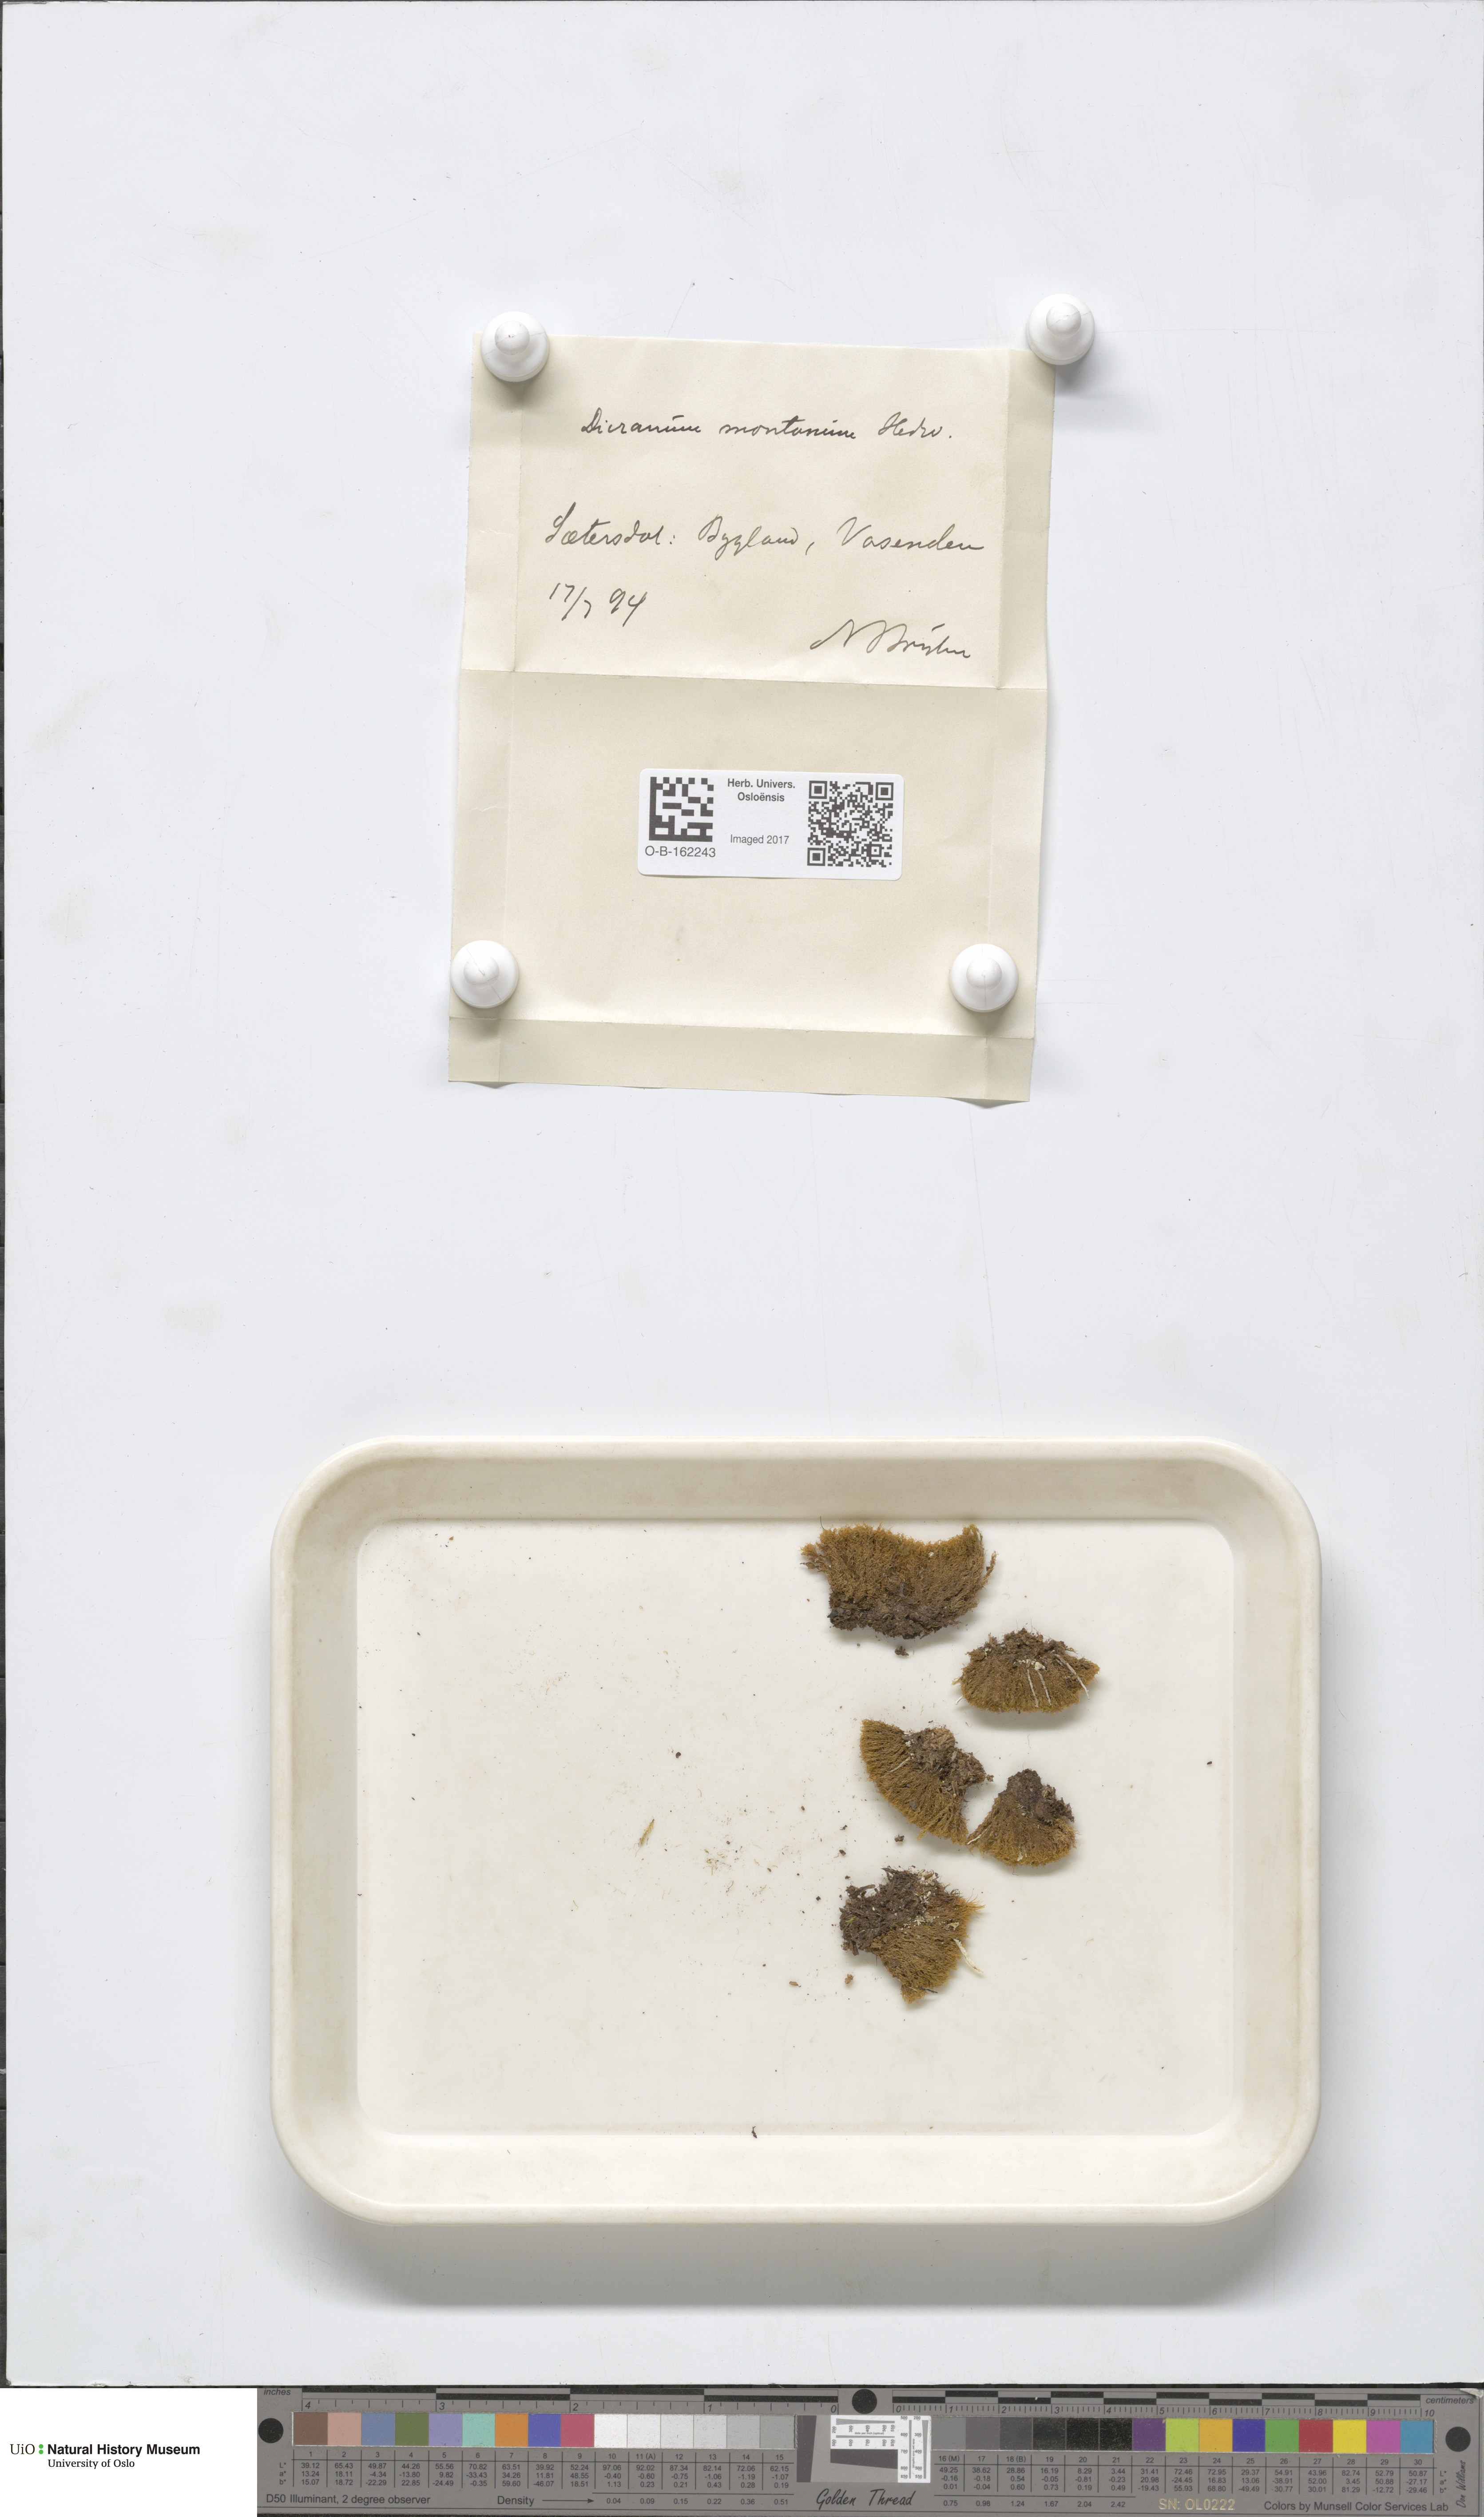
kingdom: Plantae
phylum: Bryophyta
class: Bryopsida
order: Dicranales
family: Dicranaceae
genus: Orthodicranum
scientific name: Orthodicranum montanum
